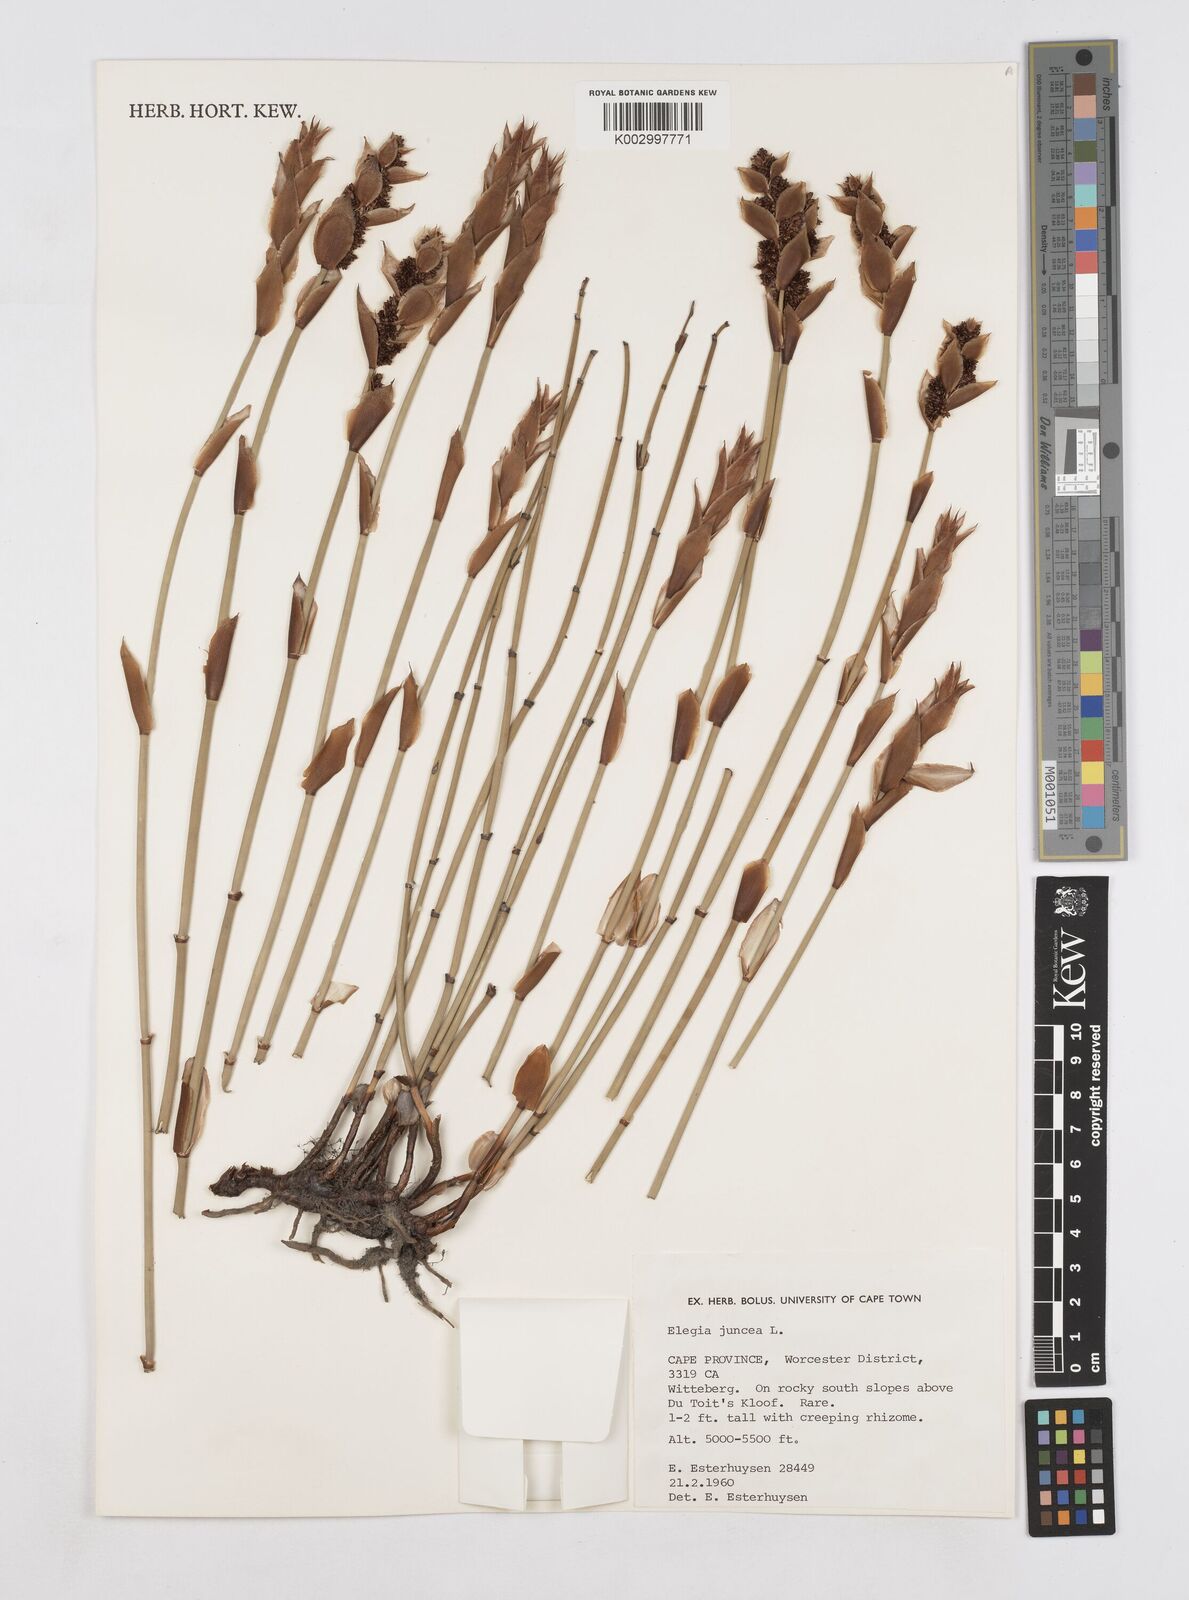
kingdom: Plantae
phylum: Tracheophyta
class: Liliopsida
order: Poales
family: Restionaceae
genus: Elegia
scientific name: Elegia juncea
